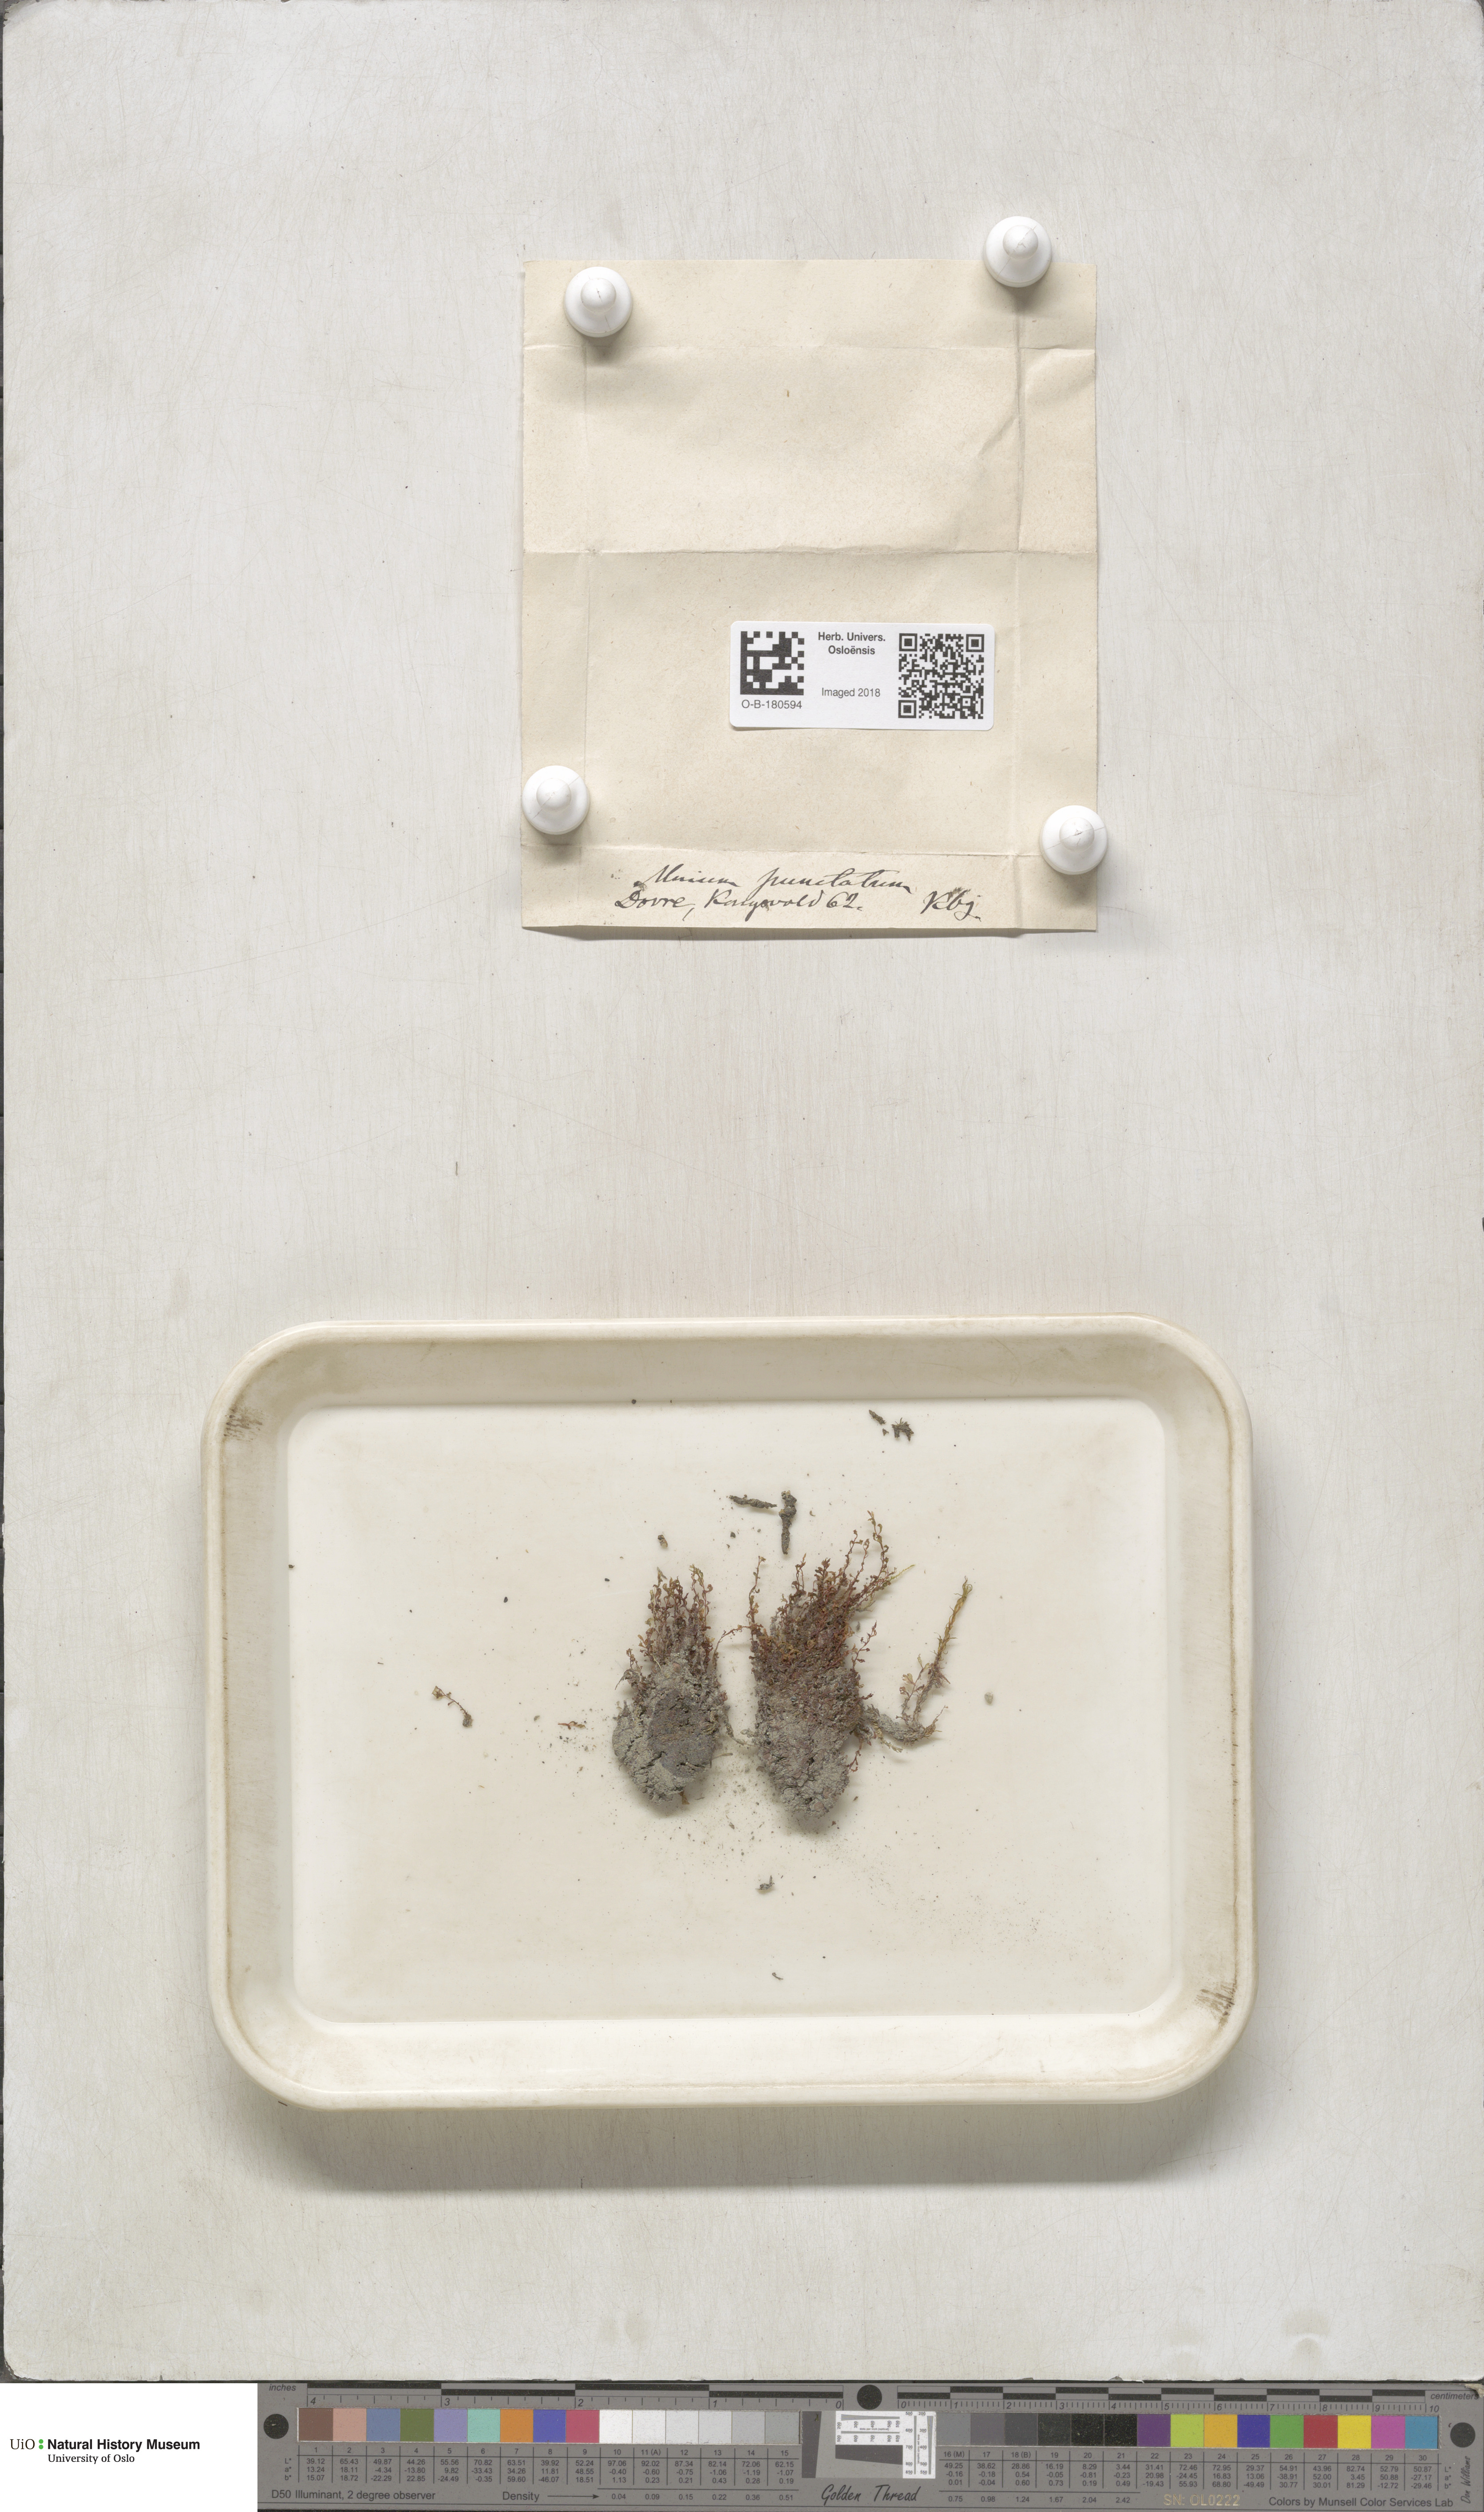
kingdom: Plantae
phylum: Bryophyta
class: Bryopsida
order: Bryales
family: Mniaceae
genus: Rhizomnium
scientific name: Rhizomnium punctatum
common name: Dotted leafy moss
